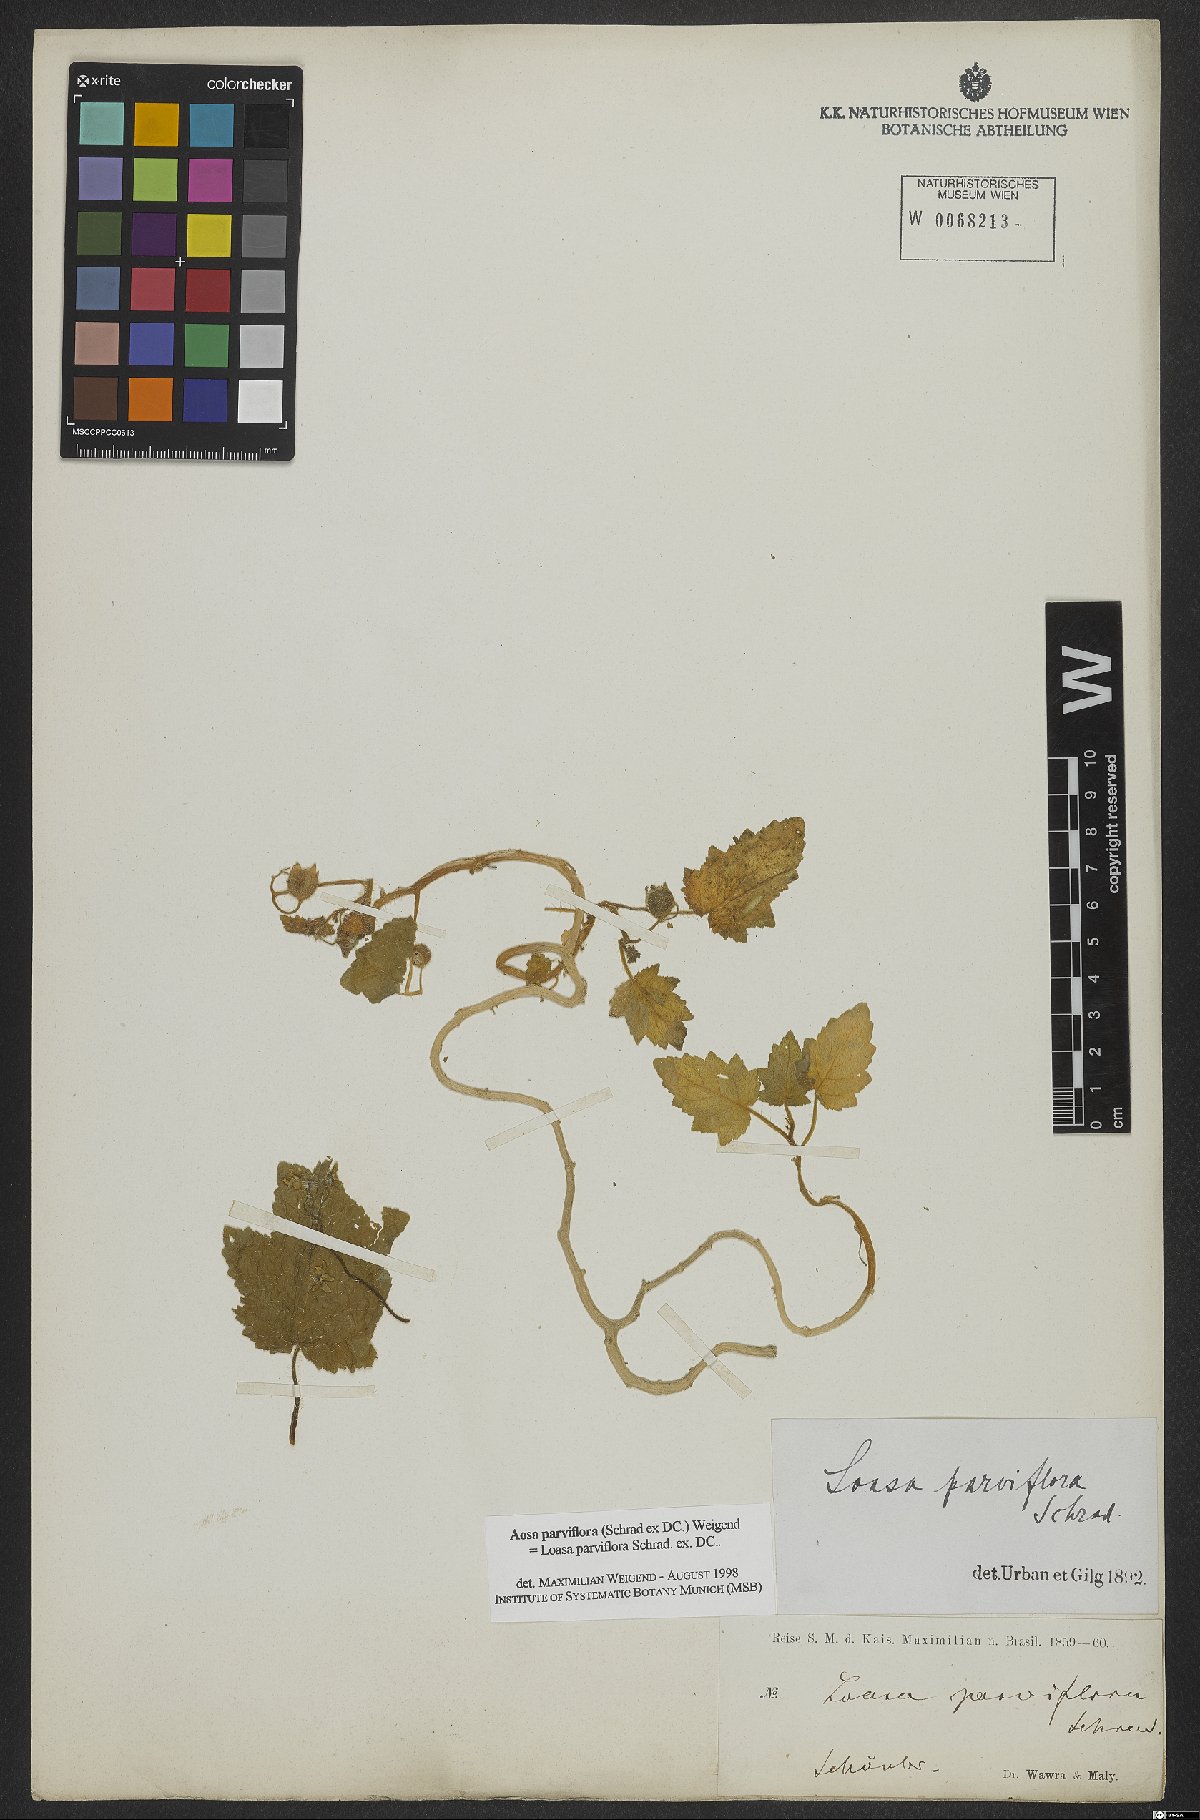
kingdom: Plantae
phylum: Tracheophyta
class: Magnoliopsida
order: Cornales
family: Loasaceae
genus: Aosa
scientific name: Aosa parviflora
